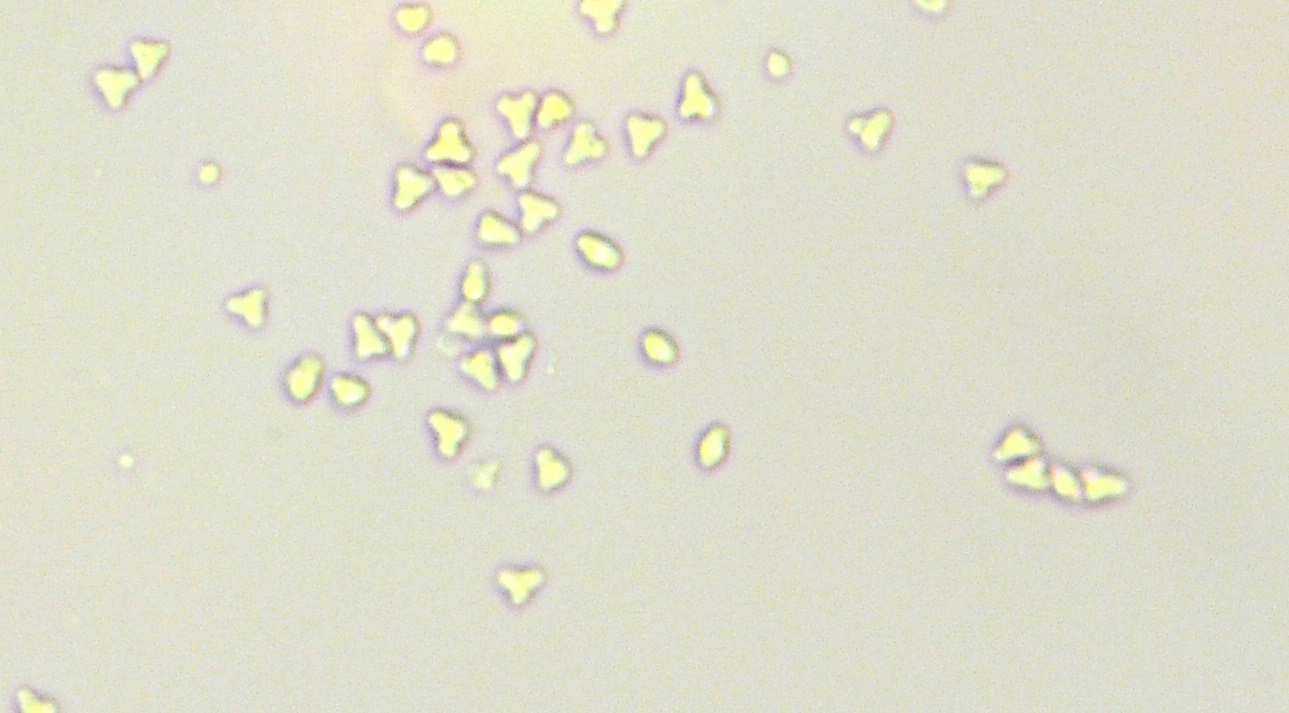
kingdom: Fungi
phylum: Basidiomycota
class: Agaricomycetes
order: Atheliales
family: Atheliaceae
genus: Tylospora
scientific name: Tylospora asterophora
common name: hjertesporet jordhinde
